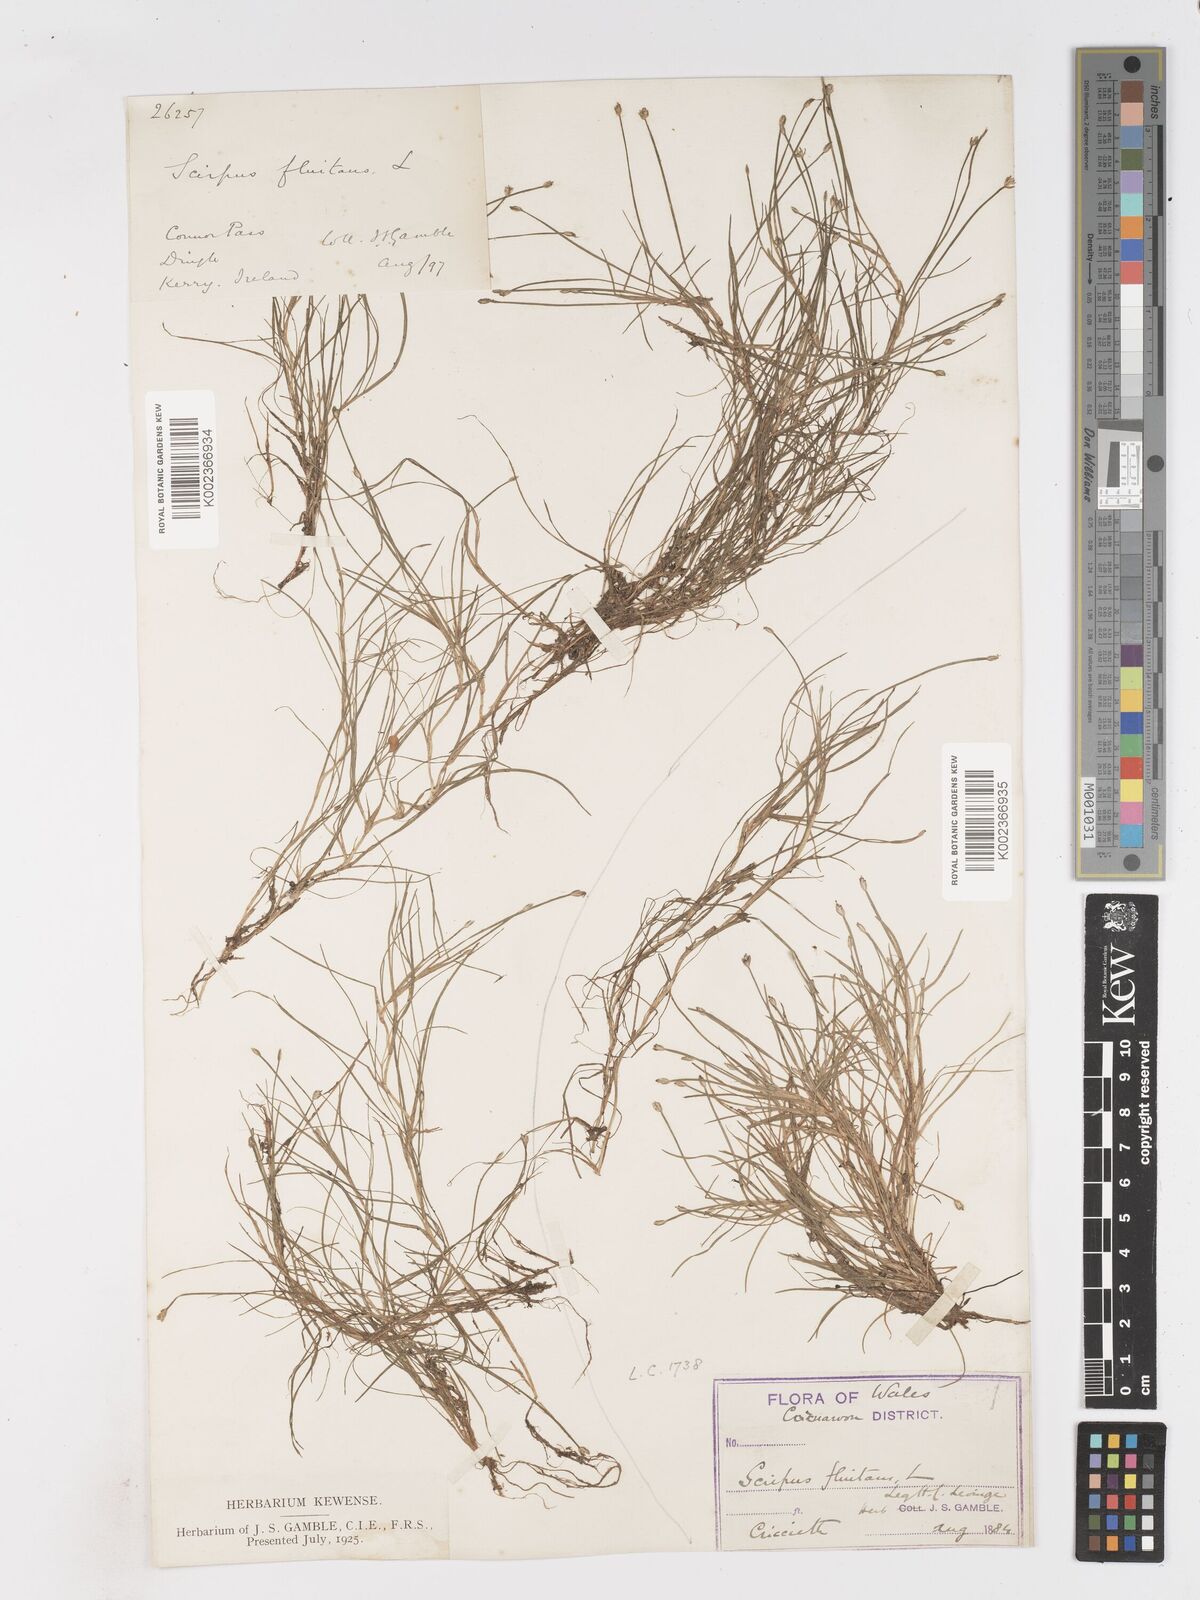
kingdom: Plantae
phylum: Tracheophyta
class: Liliopsida
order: Poales
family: Cyperaceae
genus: Isolepis
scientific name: Isolepis fluitans
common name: Floating club-rush
